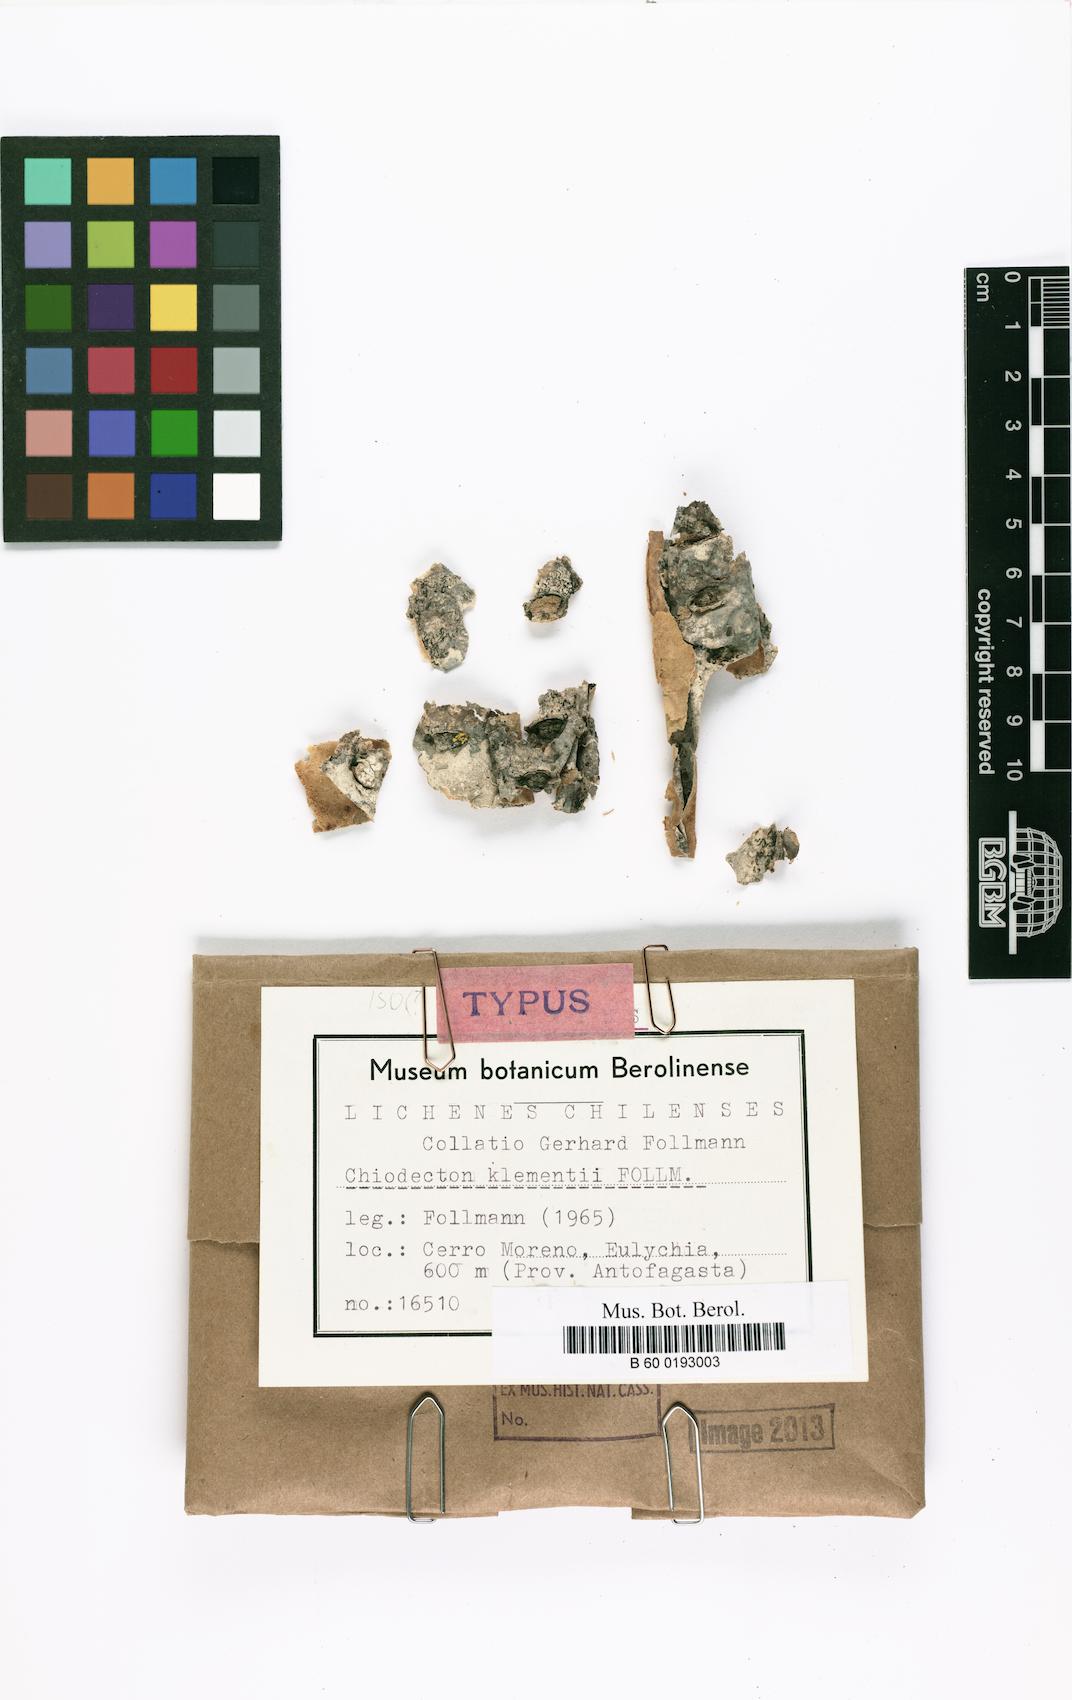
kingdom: Fungi
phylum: Ascomycota
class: Arthoniomycetes
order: Arthoniales
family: Roccellographaceae
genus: Fulvophyton
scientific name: Fulvophyton klementii
